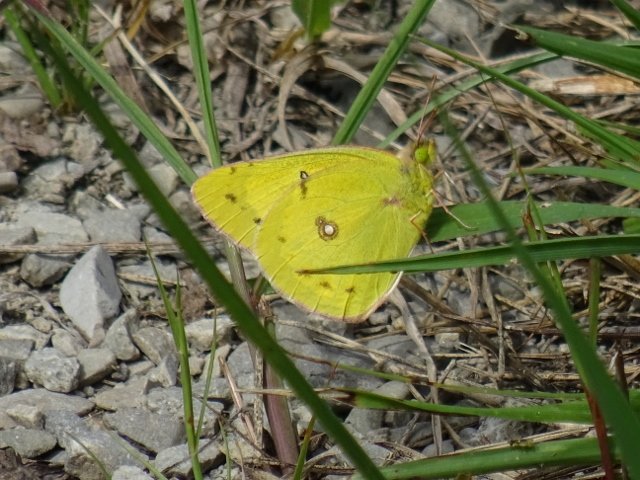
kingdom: Animalia
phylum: Arthropoda
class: Insecta
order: Lepidoptera
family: Pieridae
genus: Colias
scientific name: Colias philodice
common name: Clouded Sulphur
